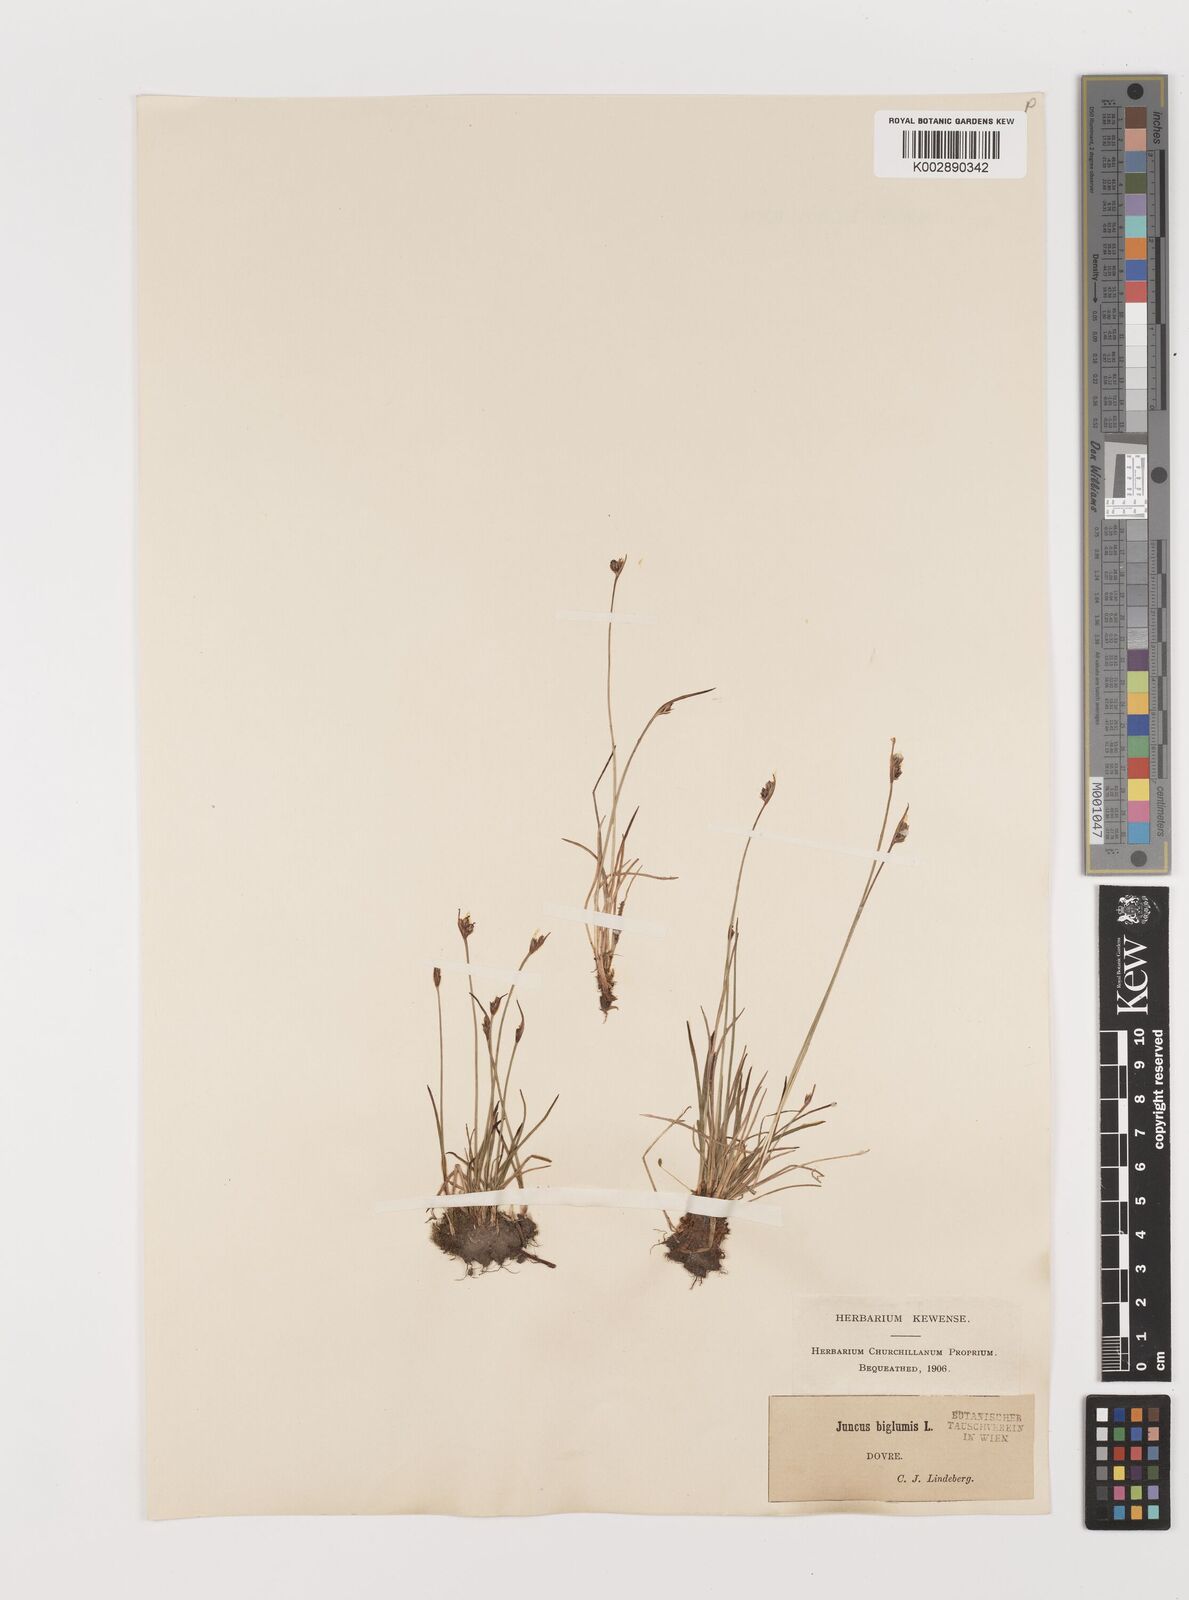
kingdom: Plantae
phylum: Tracheophyta
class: Liliopsida
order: Poales
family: Juncaceae
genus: Juncus
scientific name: Juncus biglumis
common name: Two-flowered rush
